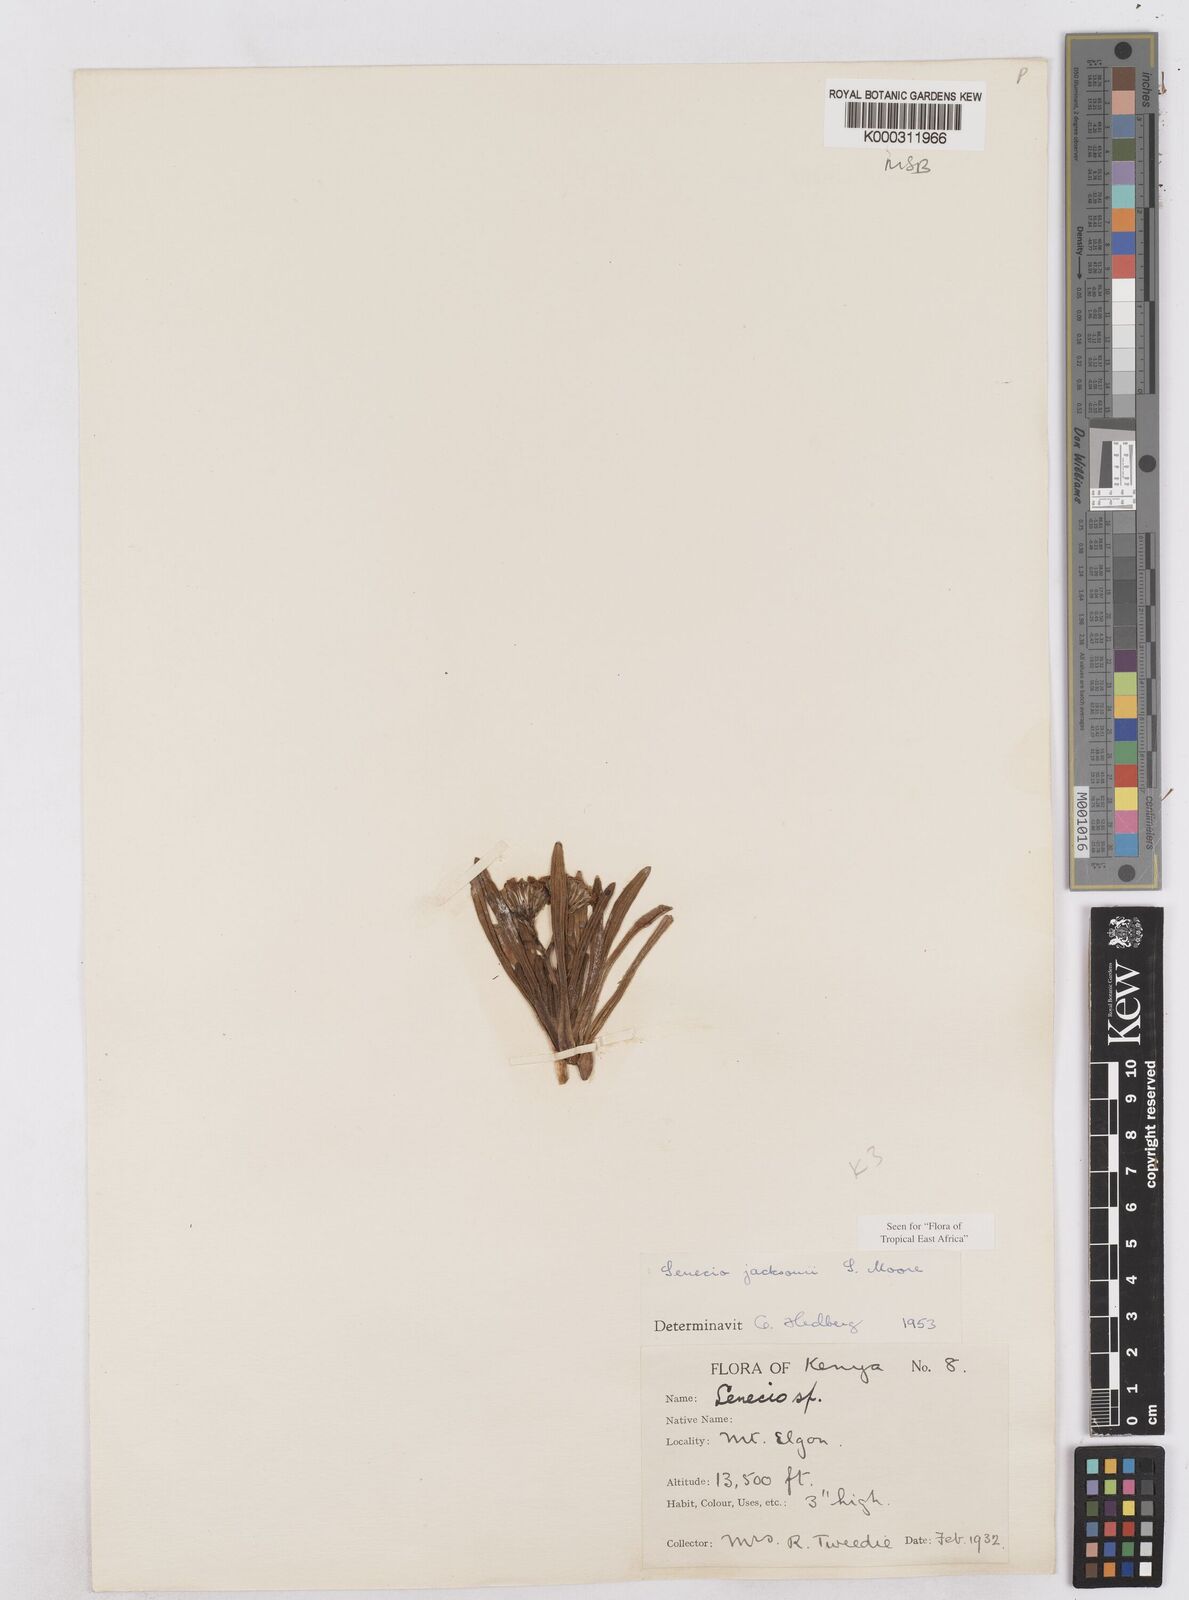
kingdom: Plantae
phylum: Tracheophyta
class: Magnoliopsida
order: Asterales
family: Asteraceae
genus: Senecio
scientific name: Senecio jacksonii
